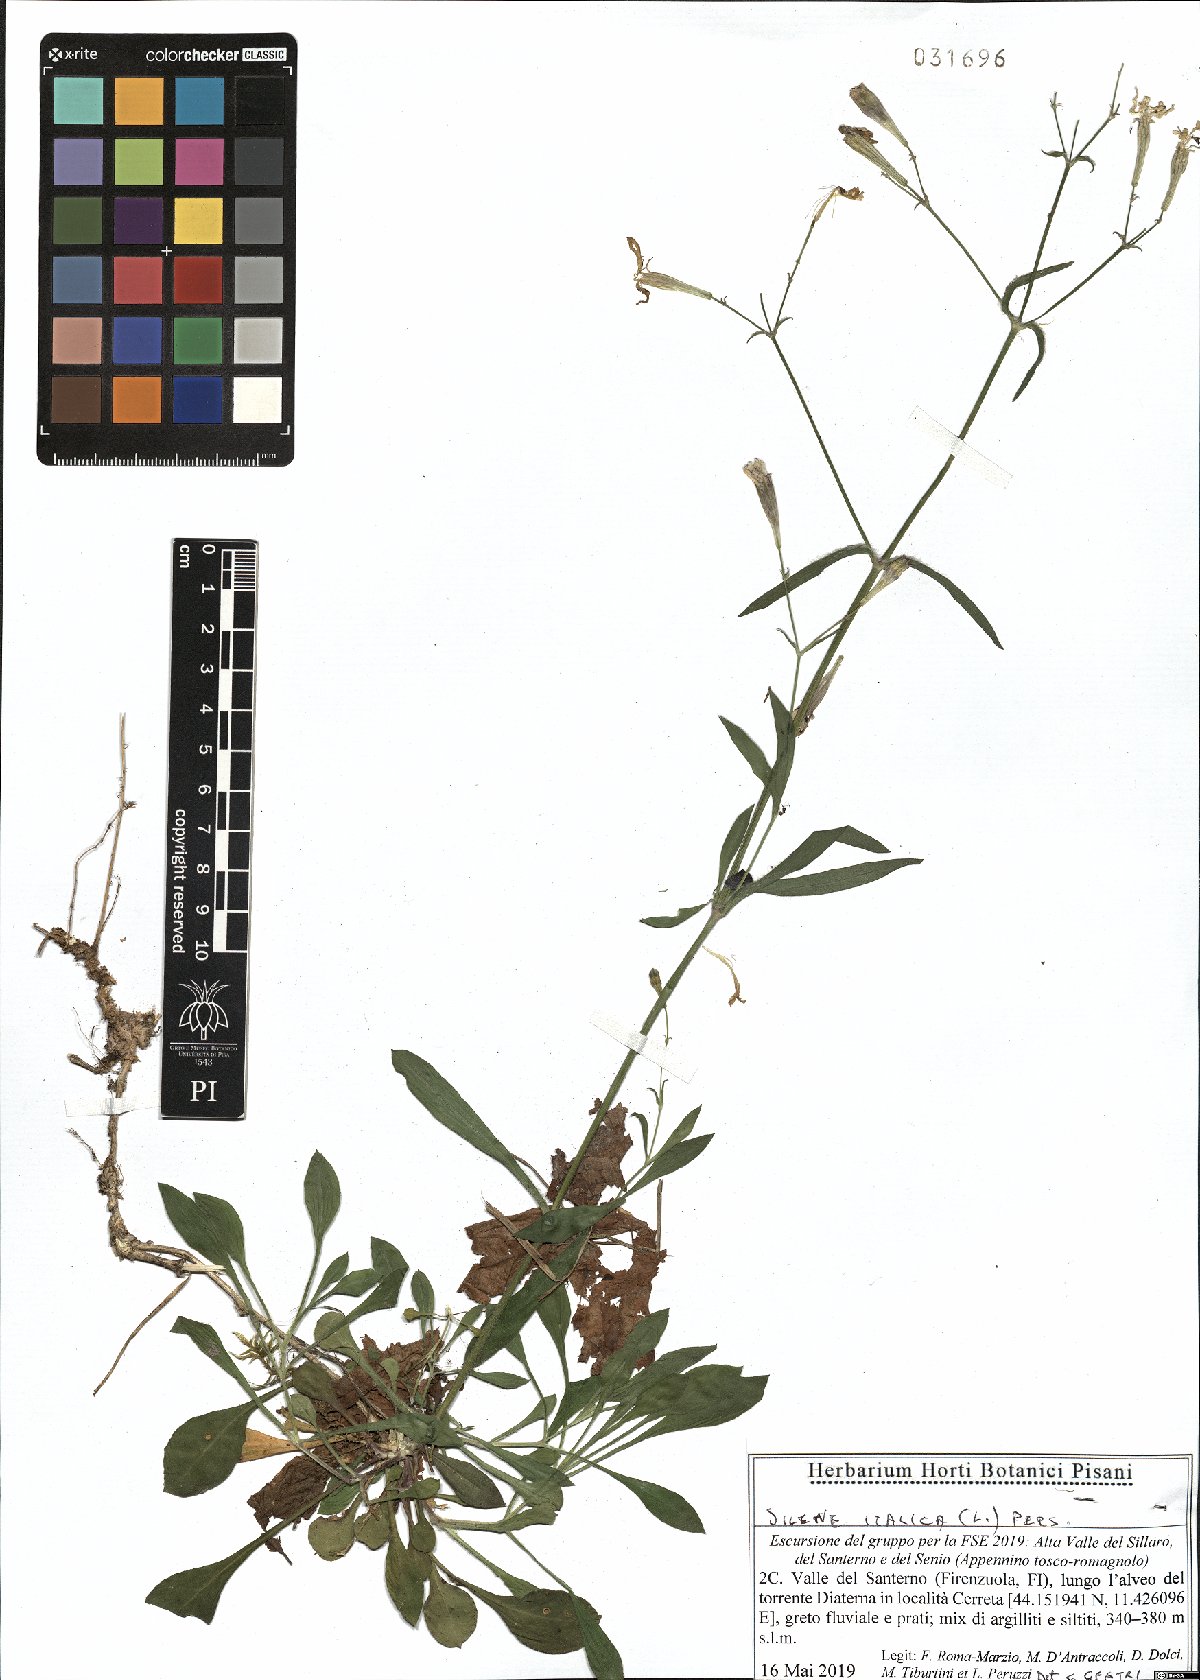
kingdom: Plantae
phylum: Tracheophyta
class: Magnoliopsida
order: Caryophyllales
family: Caryophyllaceae
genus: Silene
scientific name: Silene italica
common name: Italian catchfly
